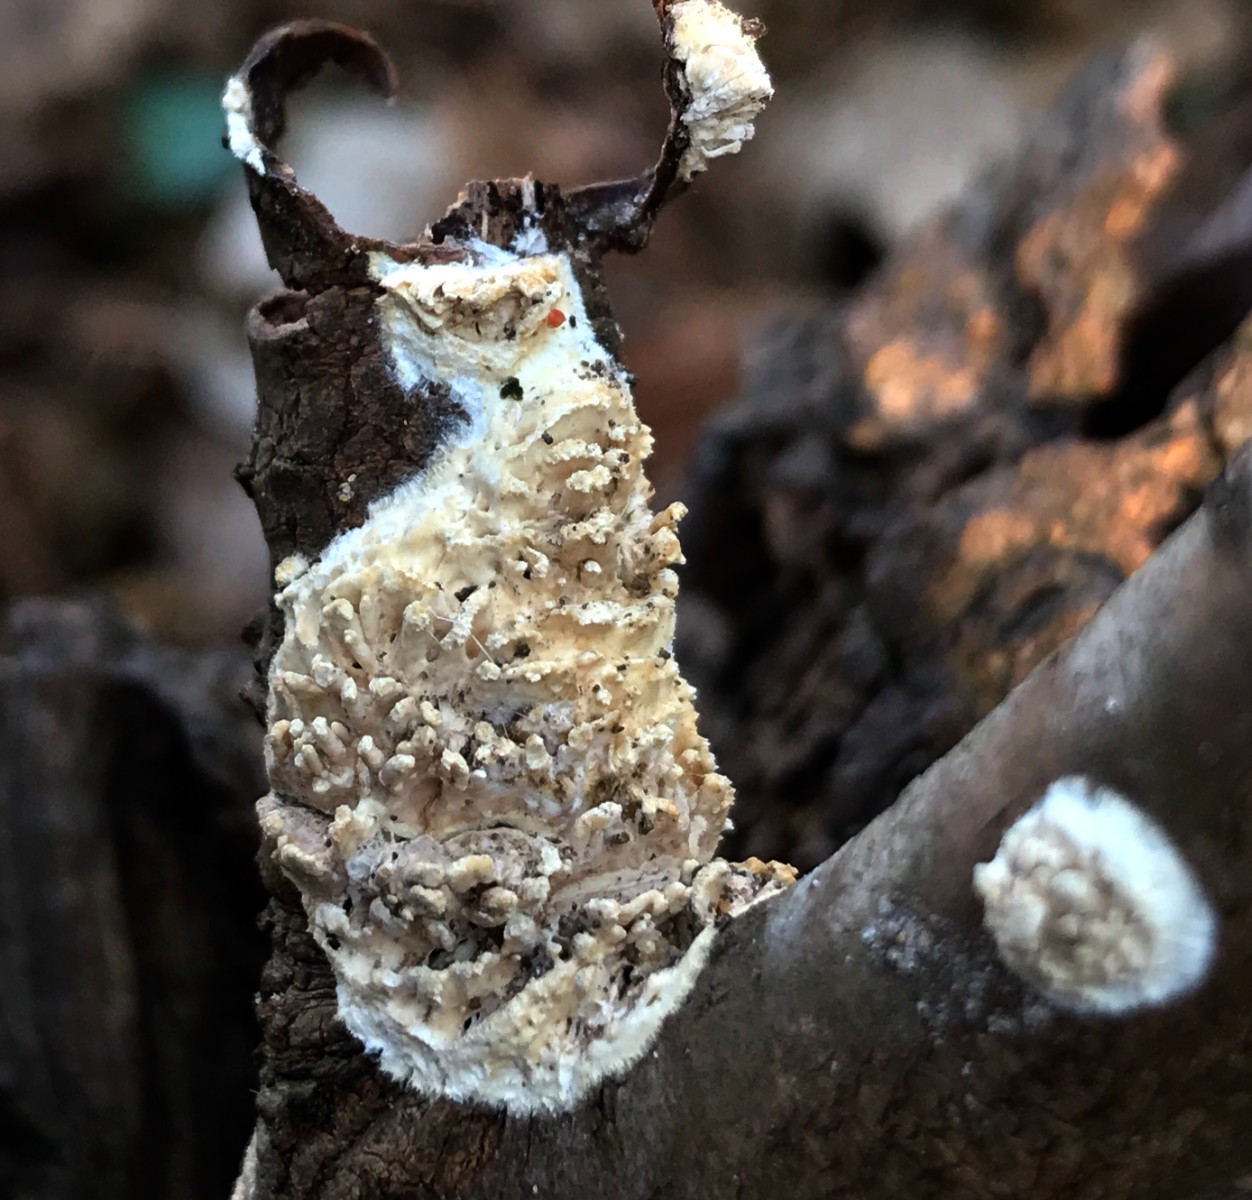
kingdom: Fungi
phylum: Basidiomycota
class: Agaricomycetes
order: Hymenochaetales
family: Schizoporaceae
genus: Xylodon
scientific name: Xylodon radula
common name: grovtandet kalkskind
